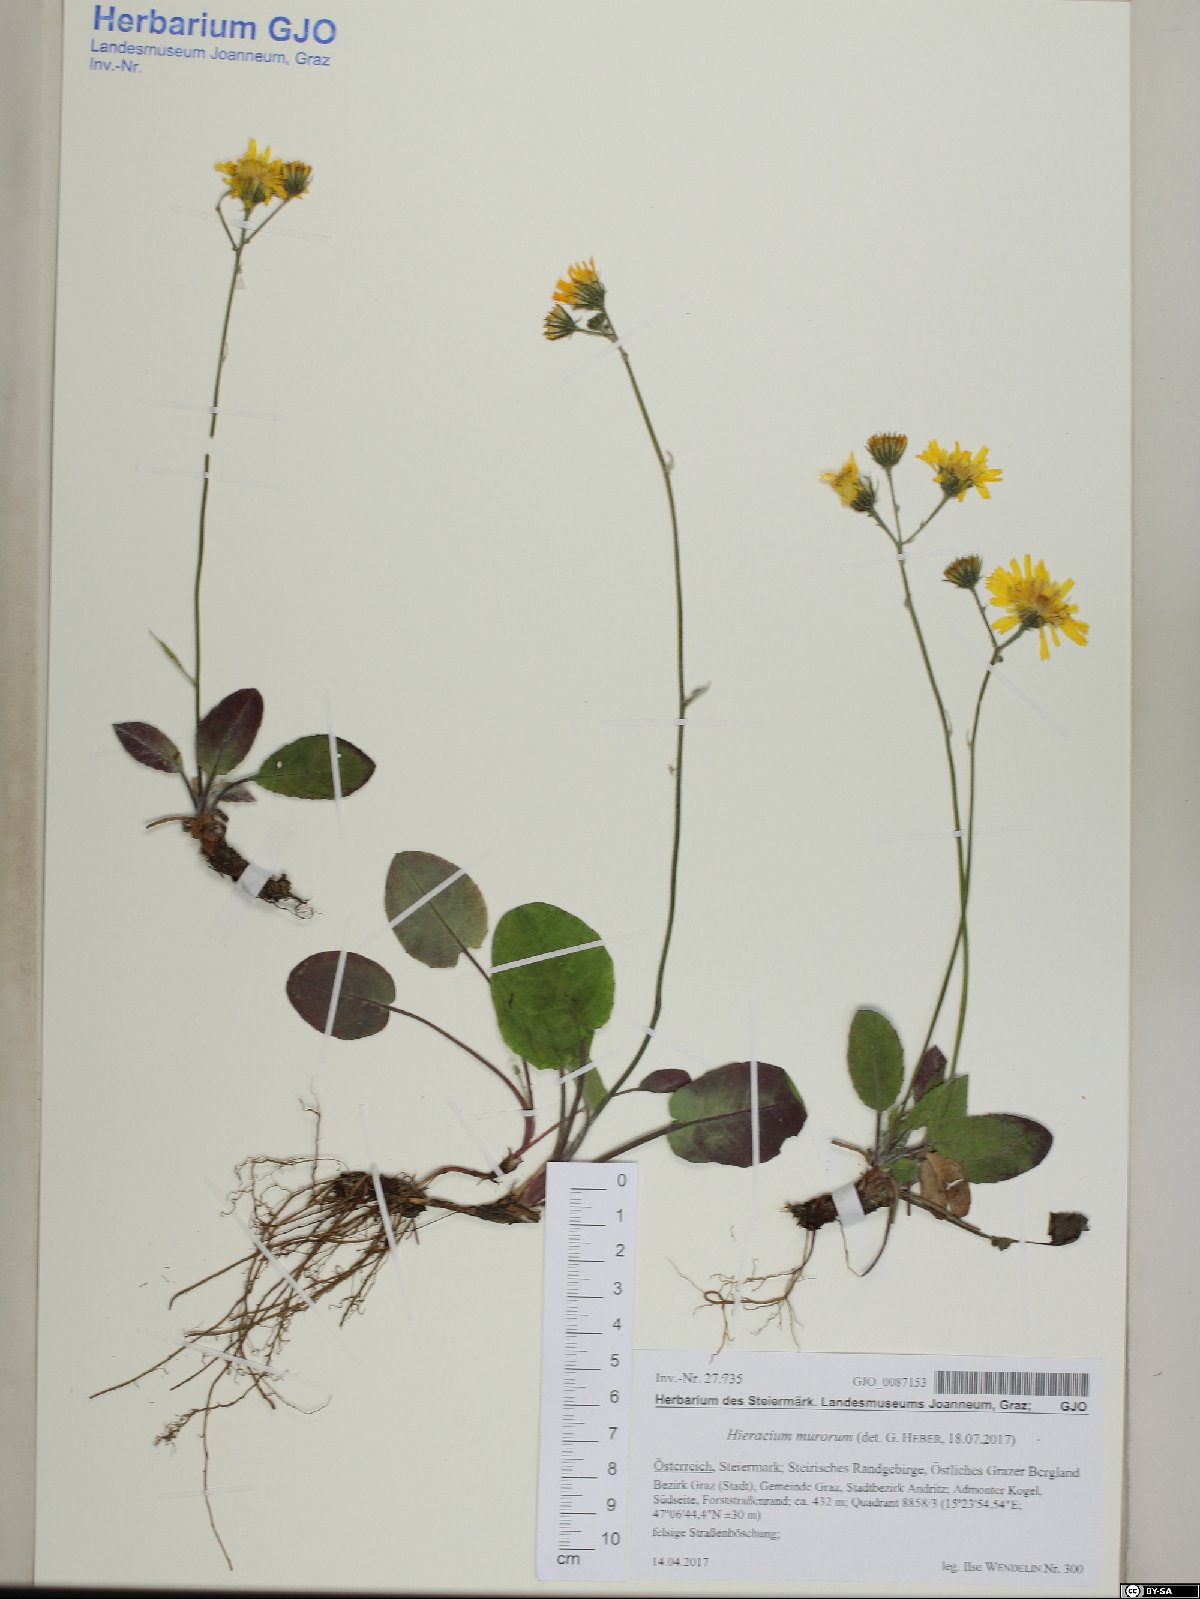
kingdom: Plantae
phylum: Tracheophyta
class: Magnoliopsida
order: Asterales
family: Asteraceae
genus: Hieracium
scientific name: Hieracium murorum
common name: Wall hawkweed
